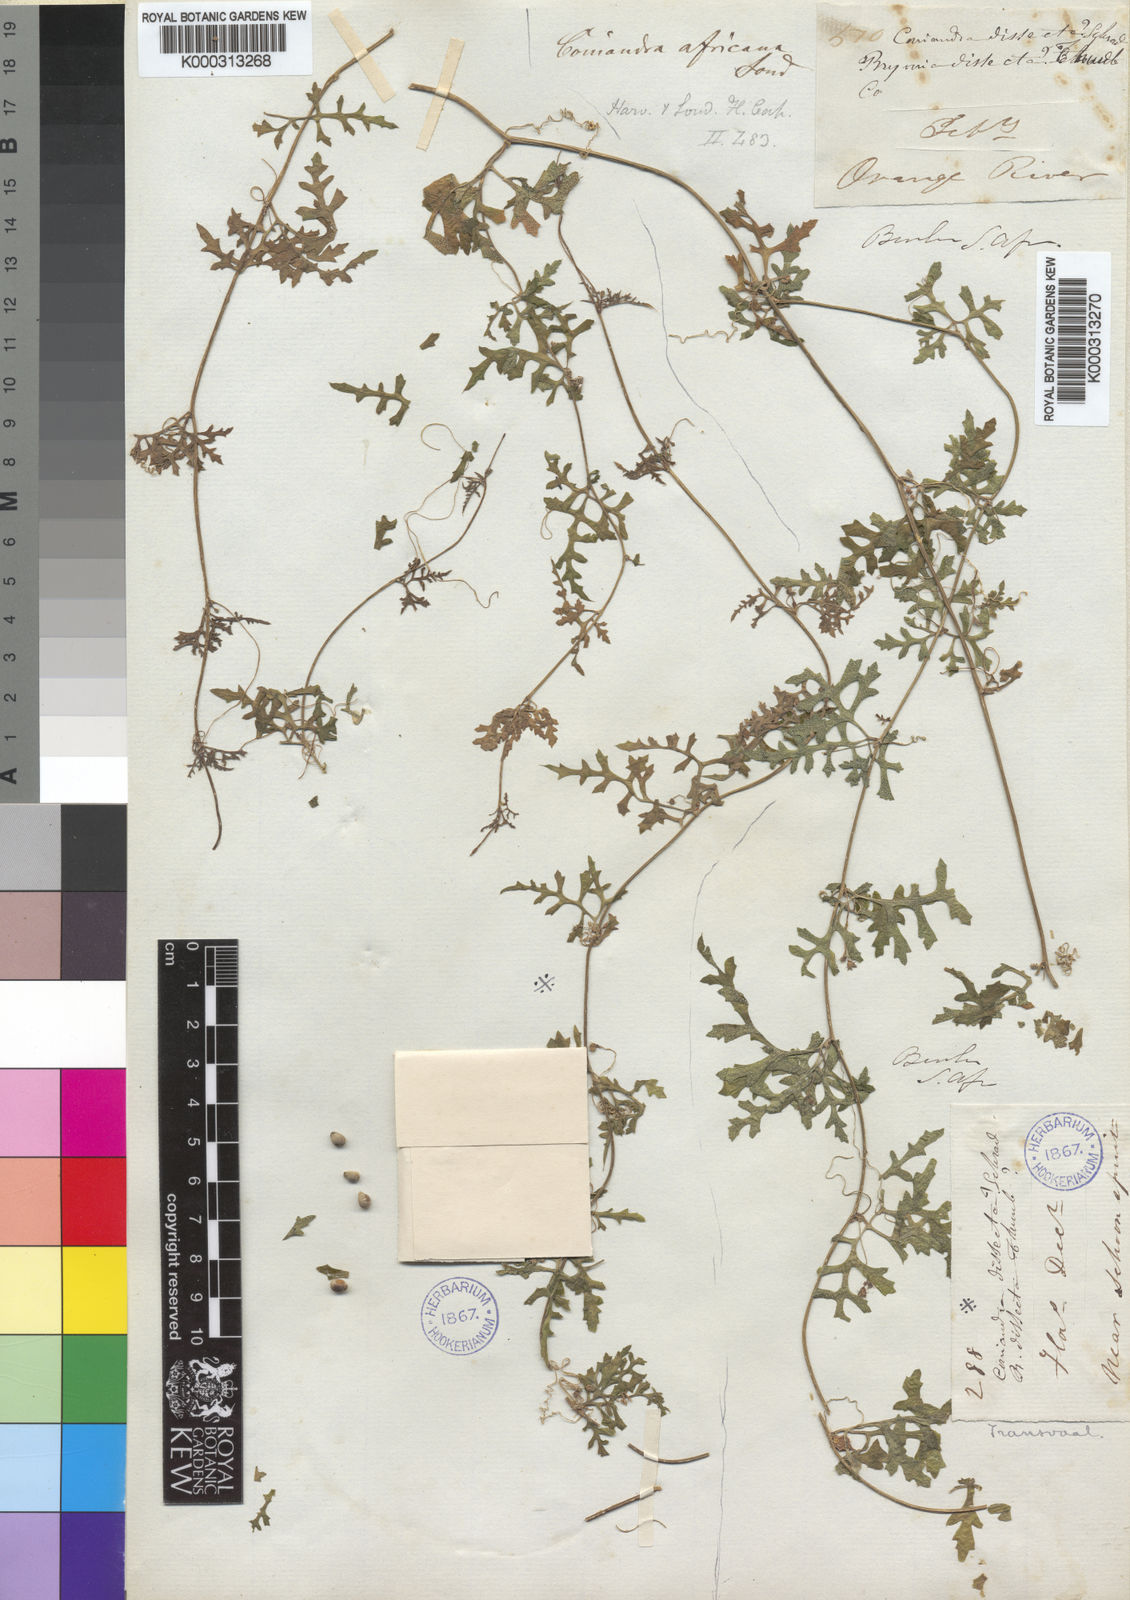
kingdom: Plantae
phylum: Tracheophyta
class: Magnoliopsida
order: Cucurbitales
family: Cucurbitaceae
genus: Kedrostis
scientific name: Kedrostis africana
